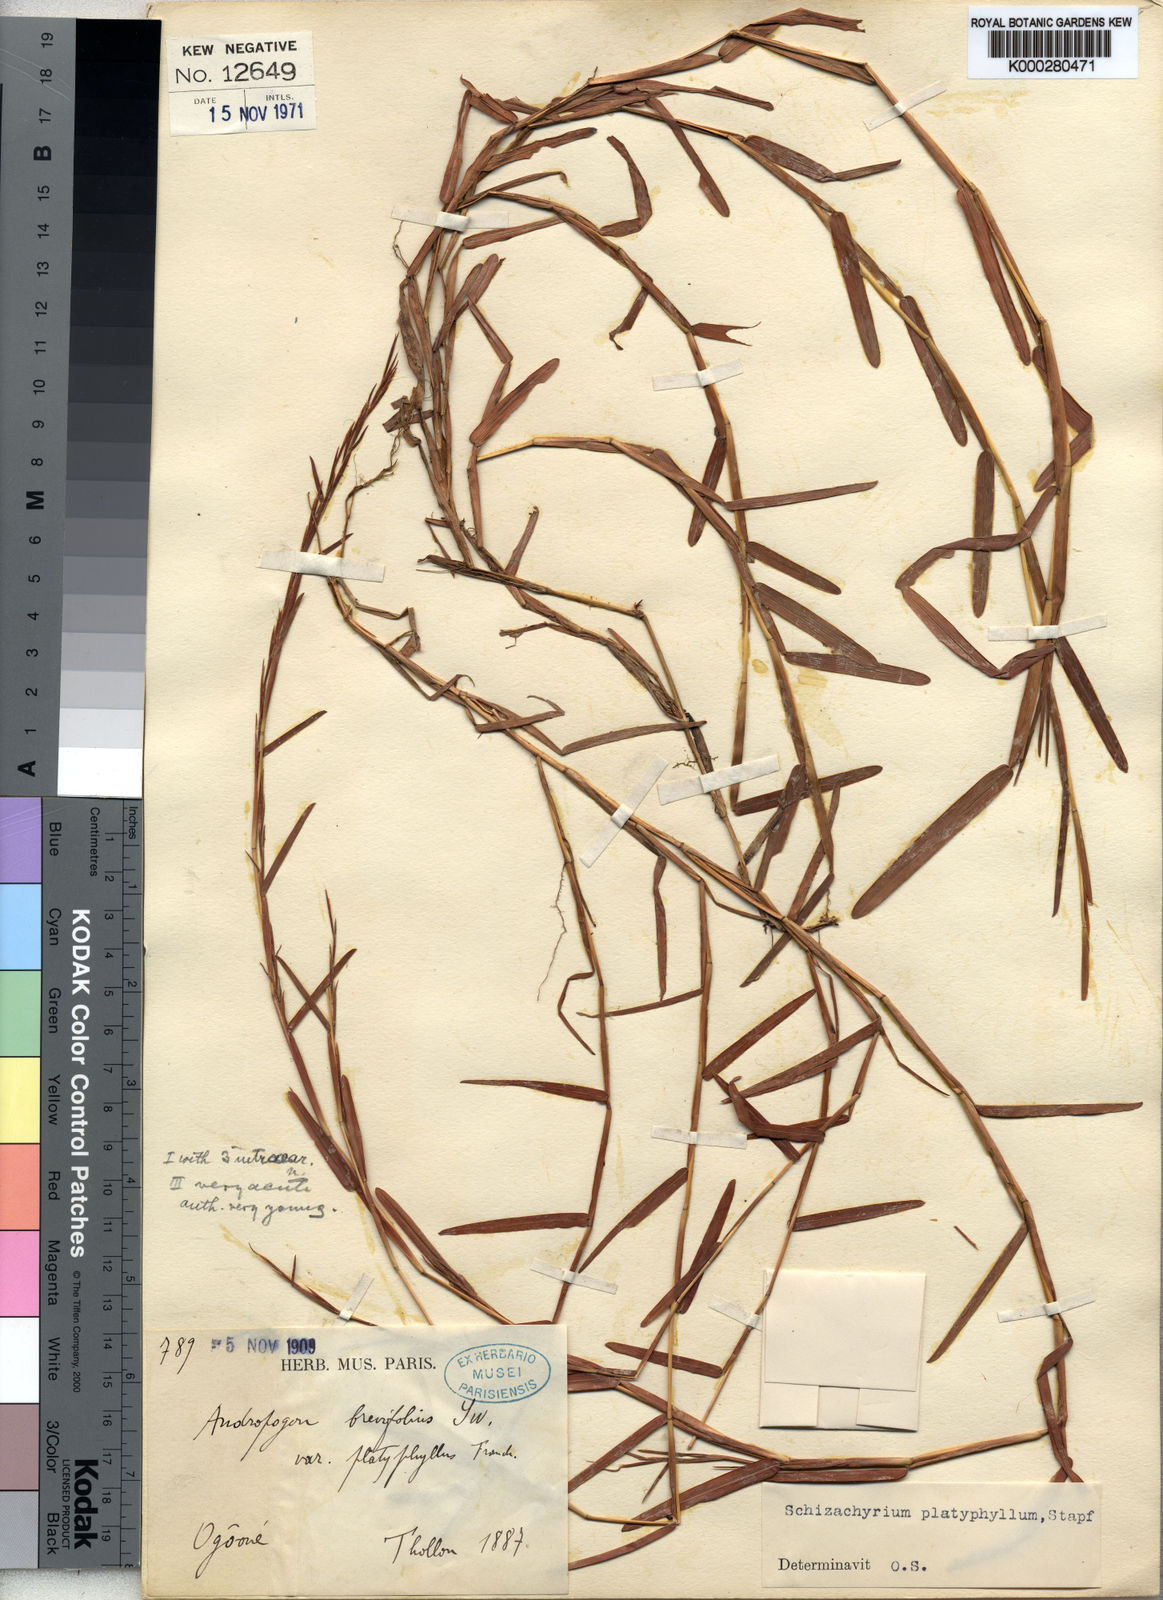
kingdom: Plantae
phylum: Tracheophyta
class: Liliopsida
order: Poales
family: Poaceae
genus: Schizachyrium
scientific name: Schizachyrium platyphyllum
